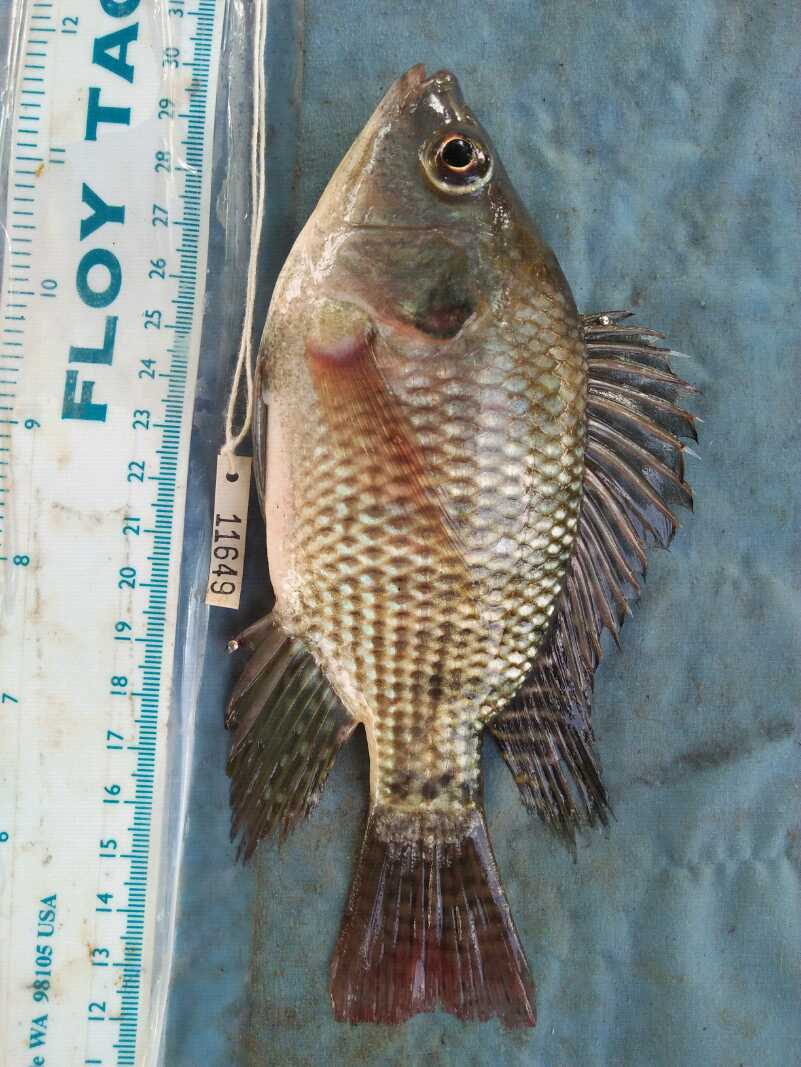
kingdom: Animalia
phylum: Chordata
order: Perciformes
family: Cichlidae
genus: Oreochromis
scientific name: Oreochromis niloticus
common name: Nile tilapia
